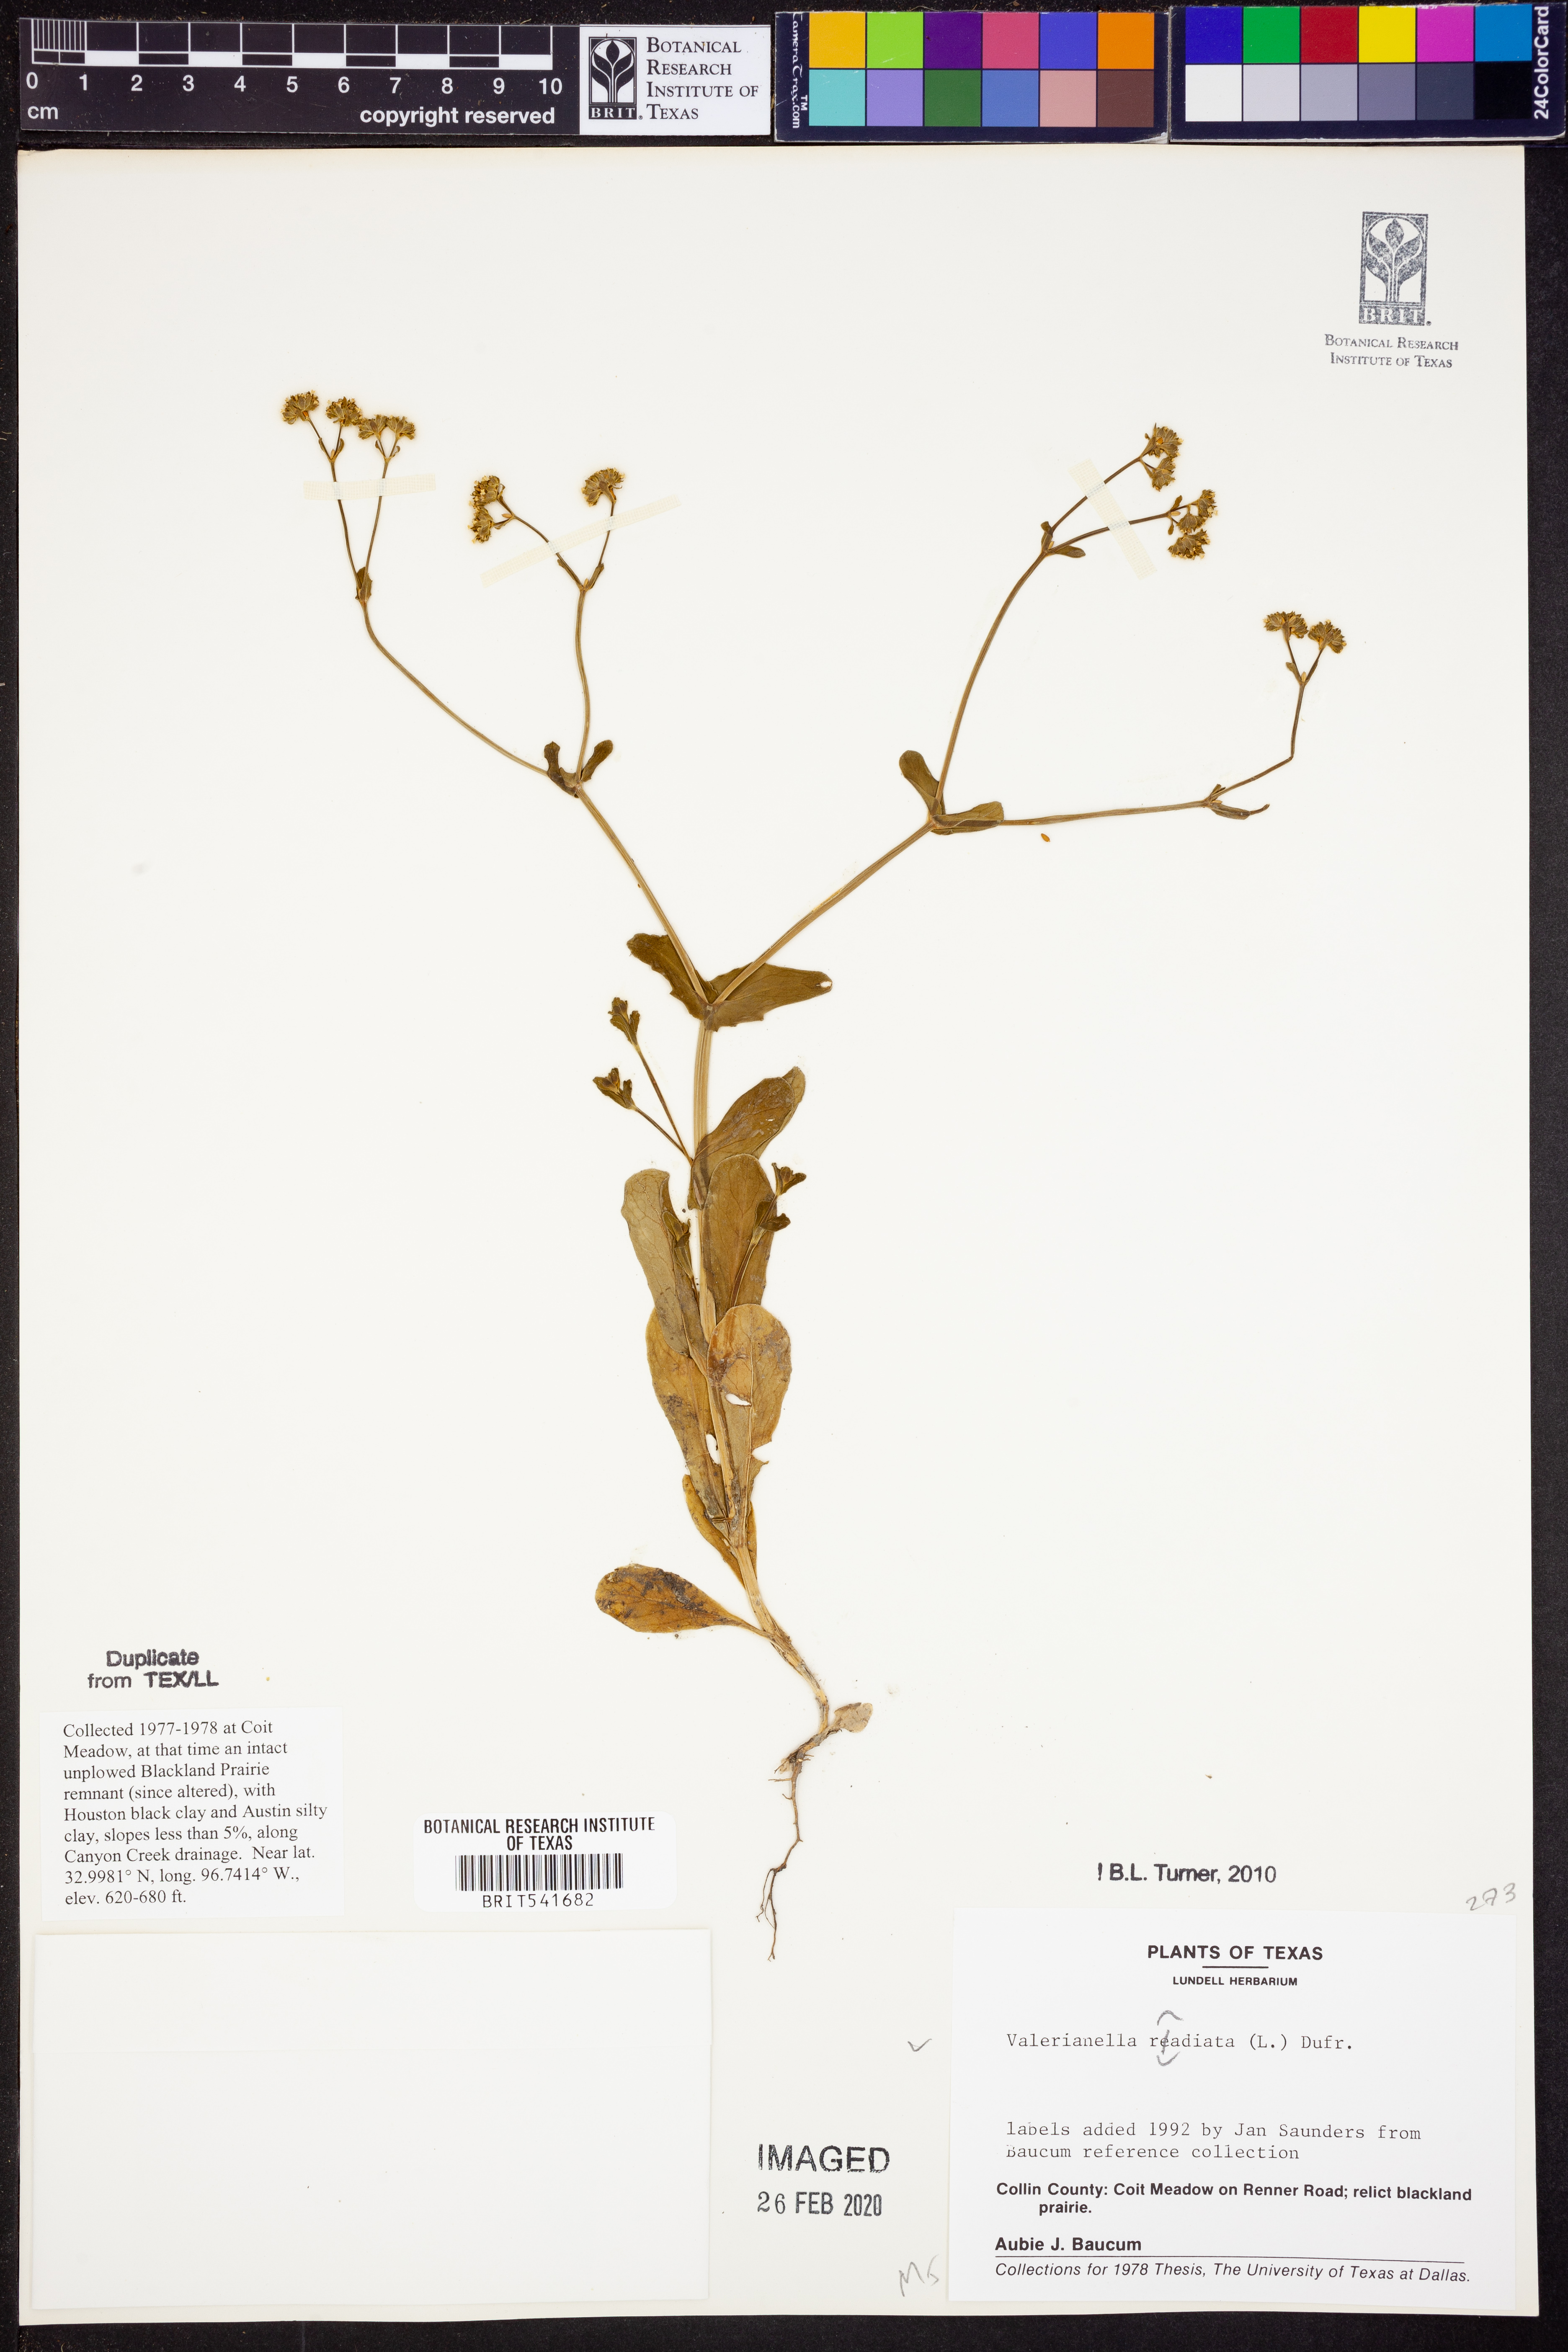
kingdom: Plantae
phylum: Tracheophyta
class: Magnoliopsida
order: Dipsacales
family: Caprifoliaceae
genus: Valerianella
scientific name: Valerianella radiata
